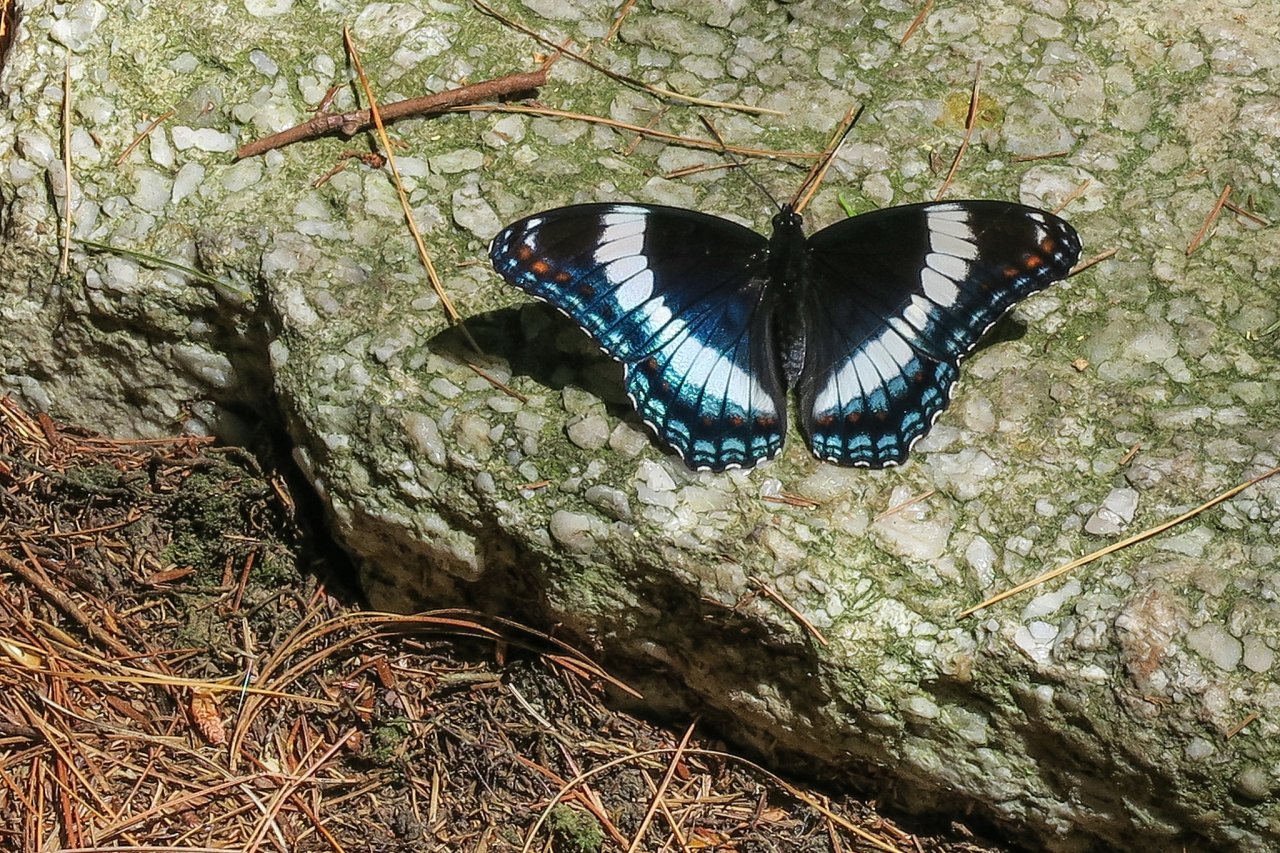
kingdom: Animalia
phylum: Arthropoda
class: Insecta
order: Lepidoptera
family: Nymphalidae
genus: Limenitis
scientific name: Limenitis arthemis
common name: Red-spotted Admiral
